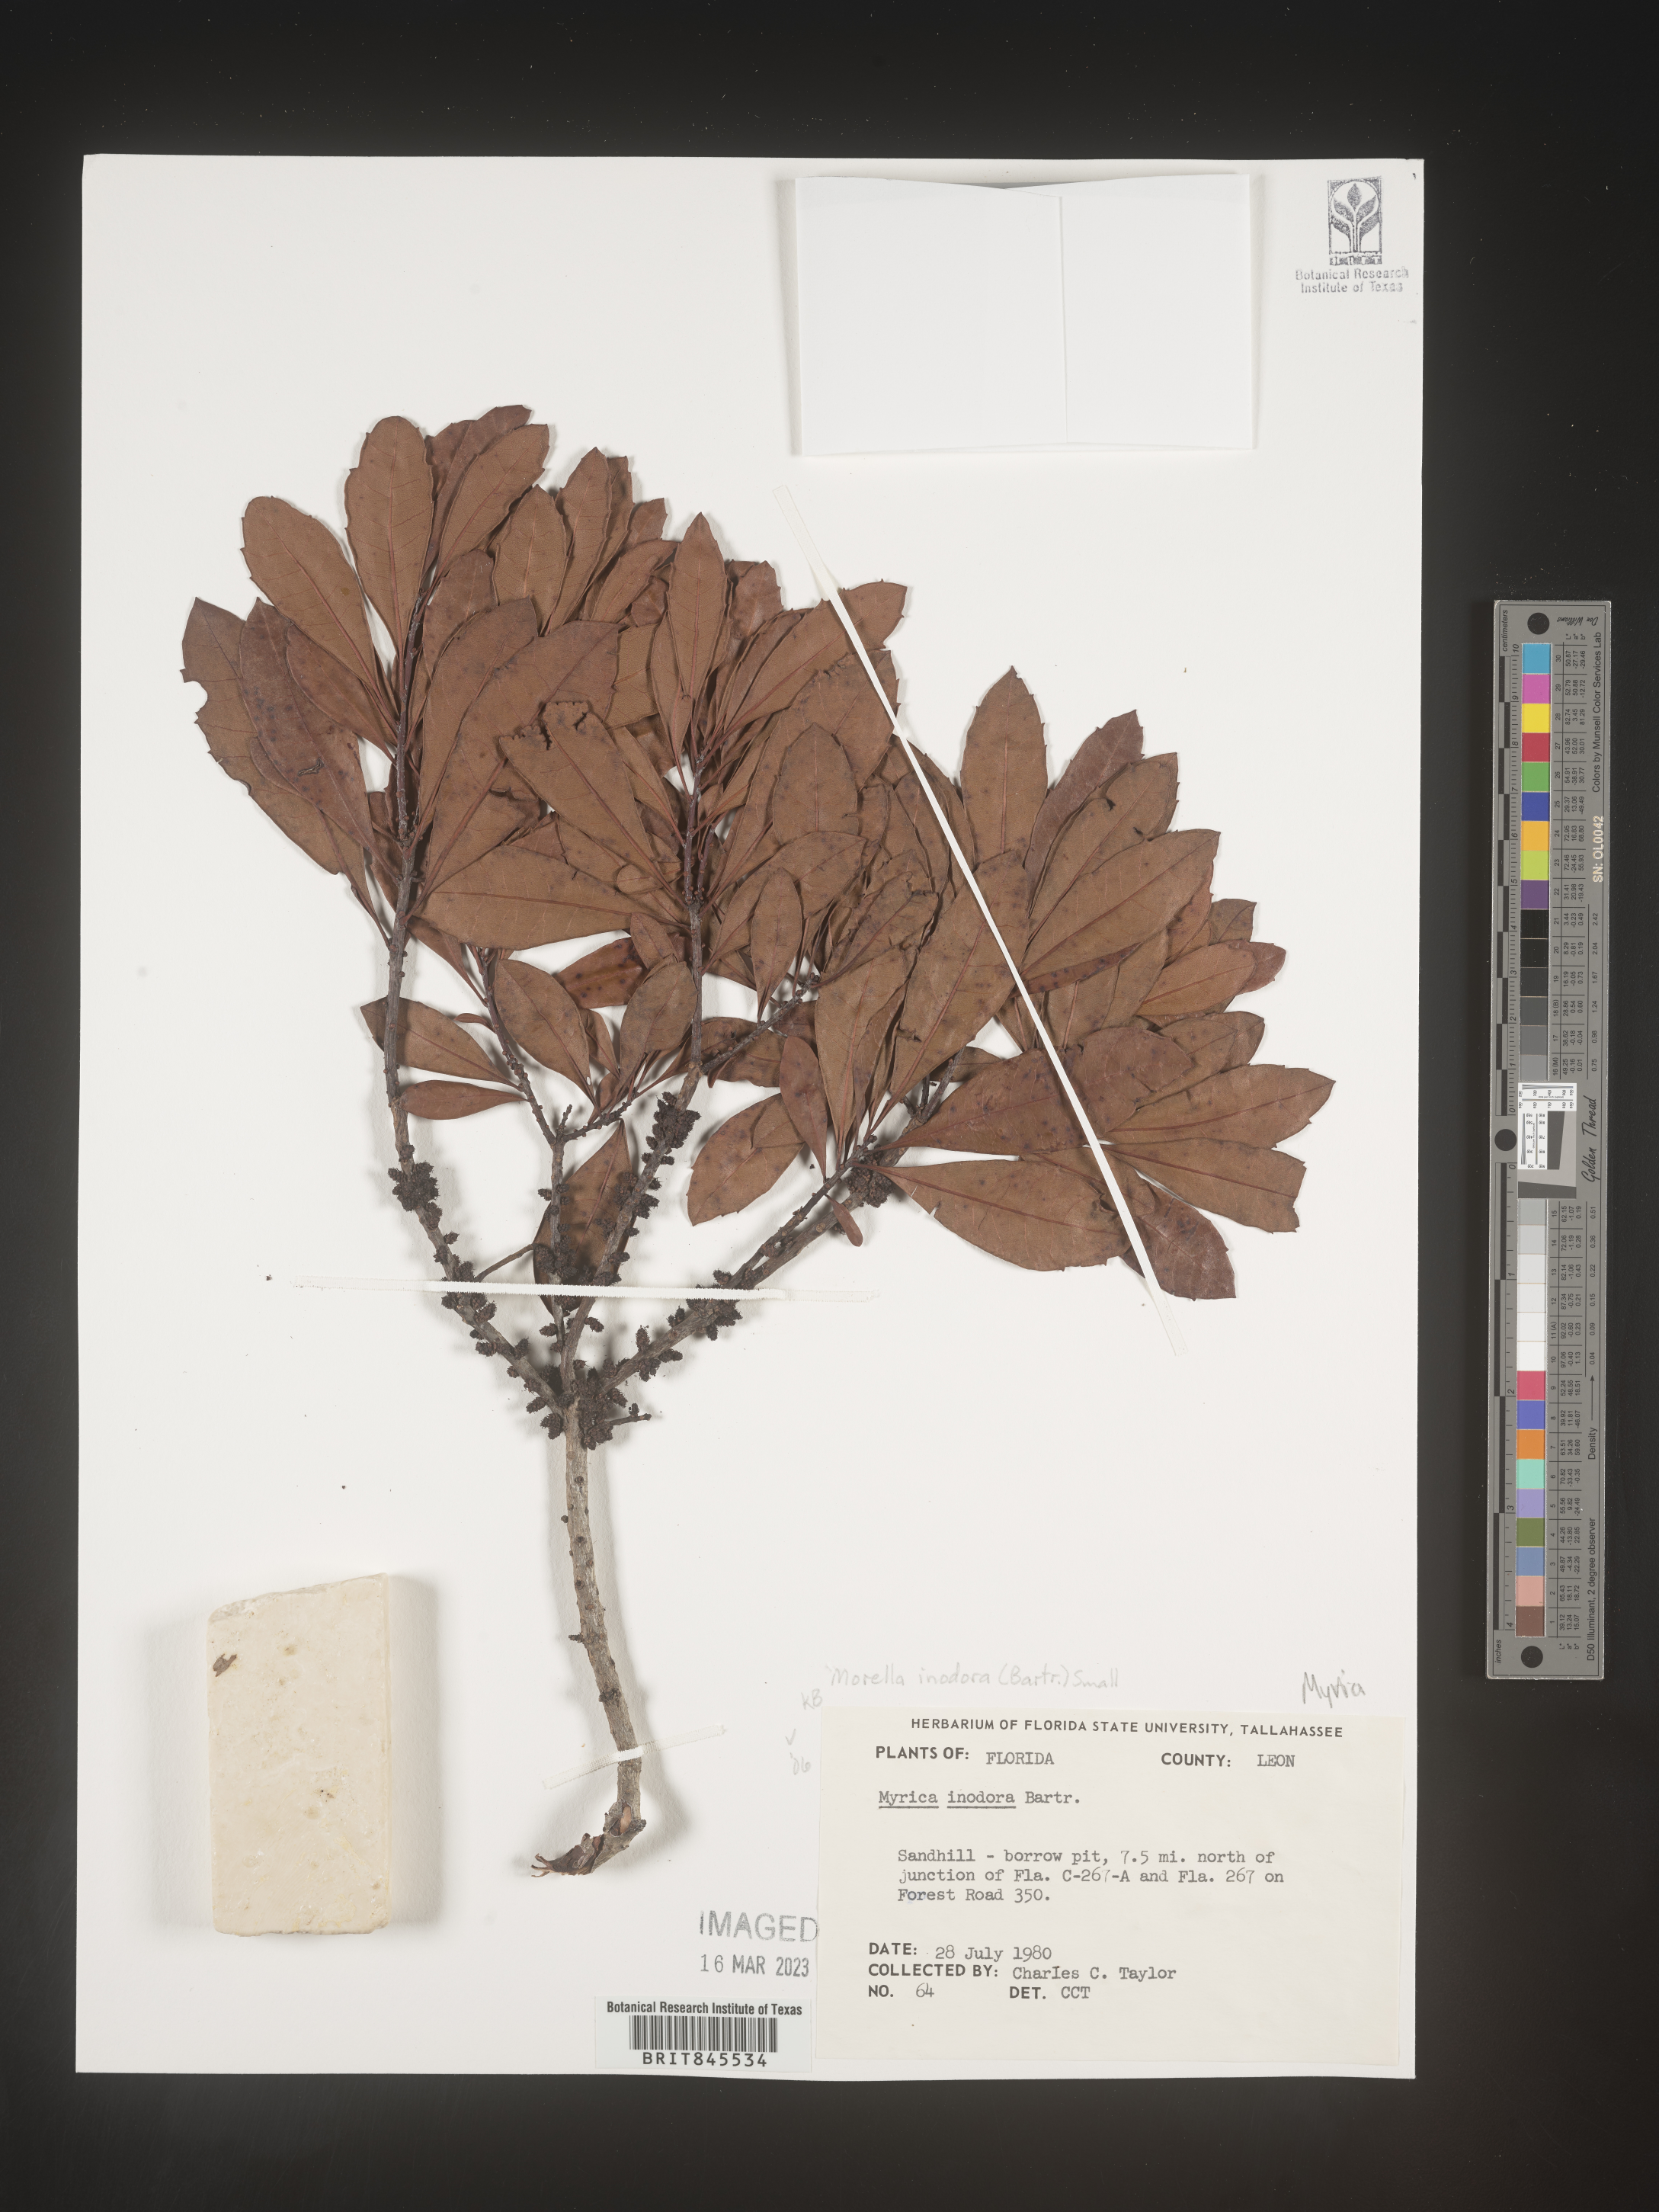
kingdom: Plantae
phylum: Tracheophyta
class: Magnoliopsida
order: Fagales
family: Myricaceae
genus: Myrica
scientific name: Myrica
